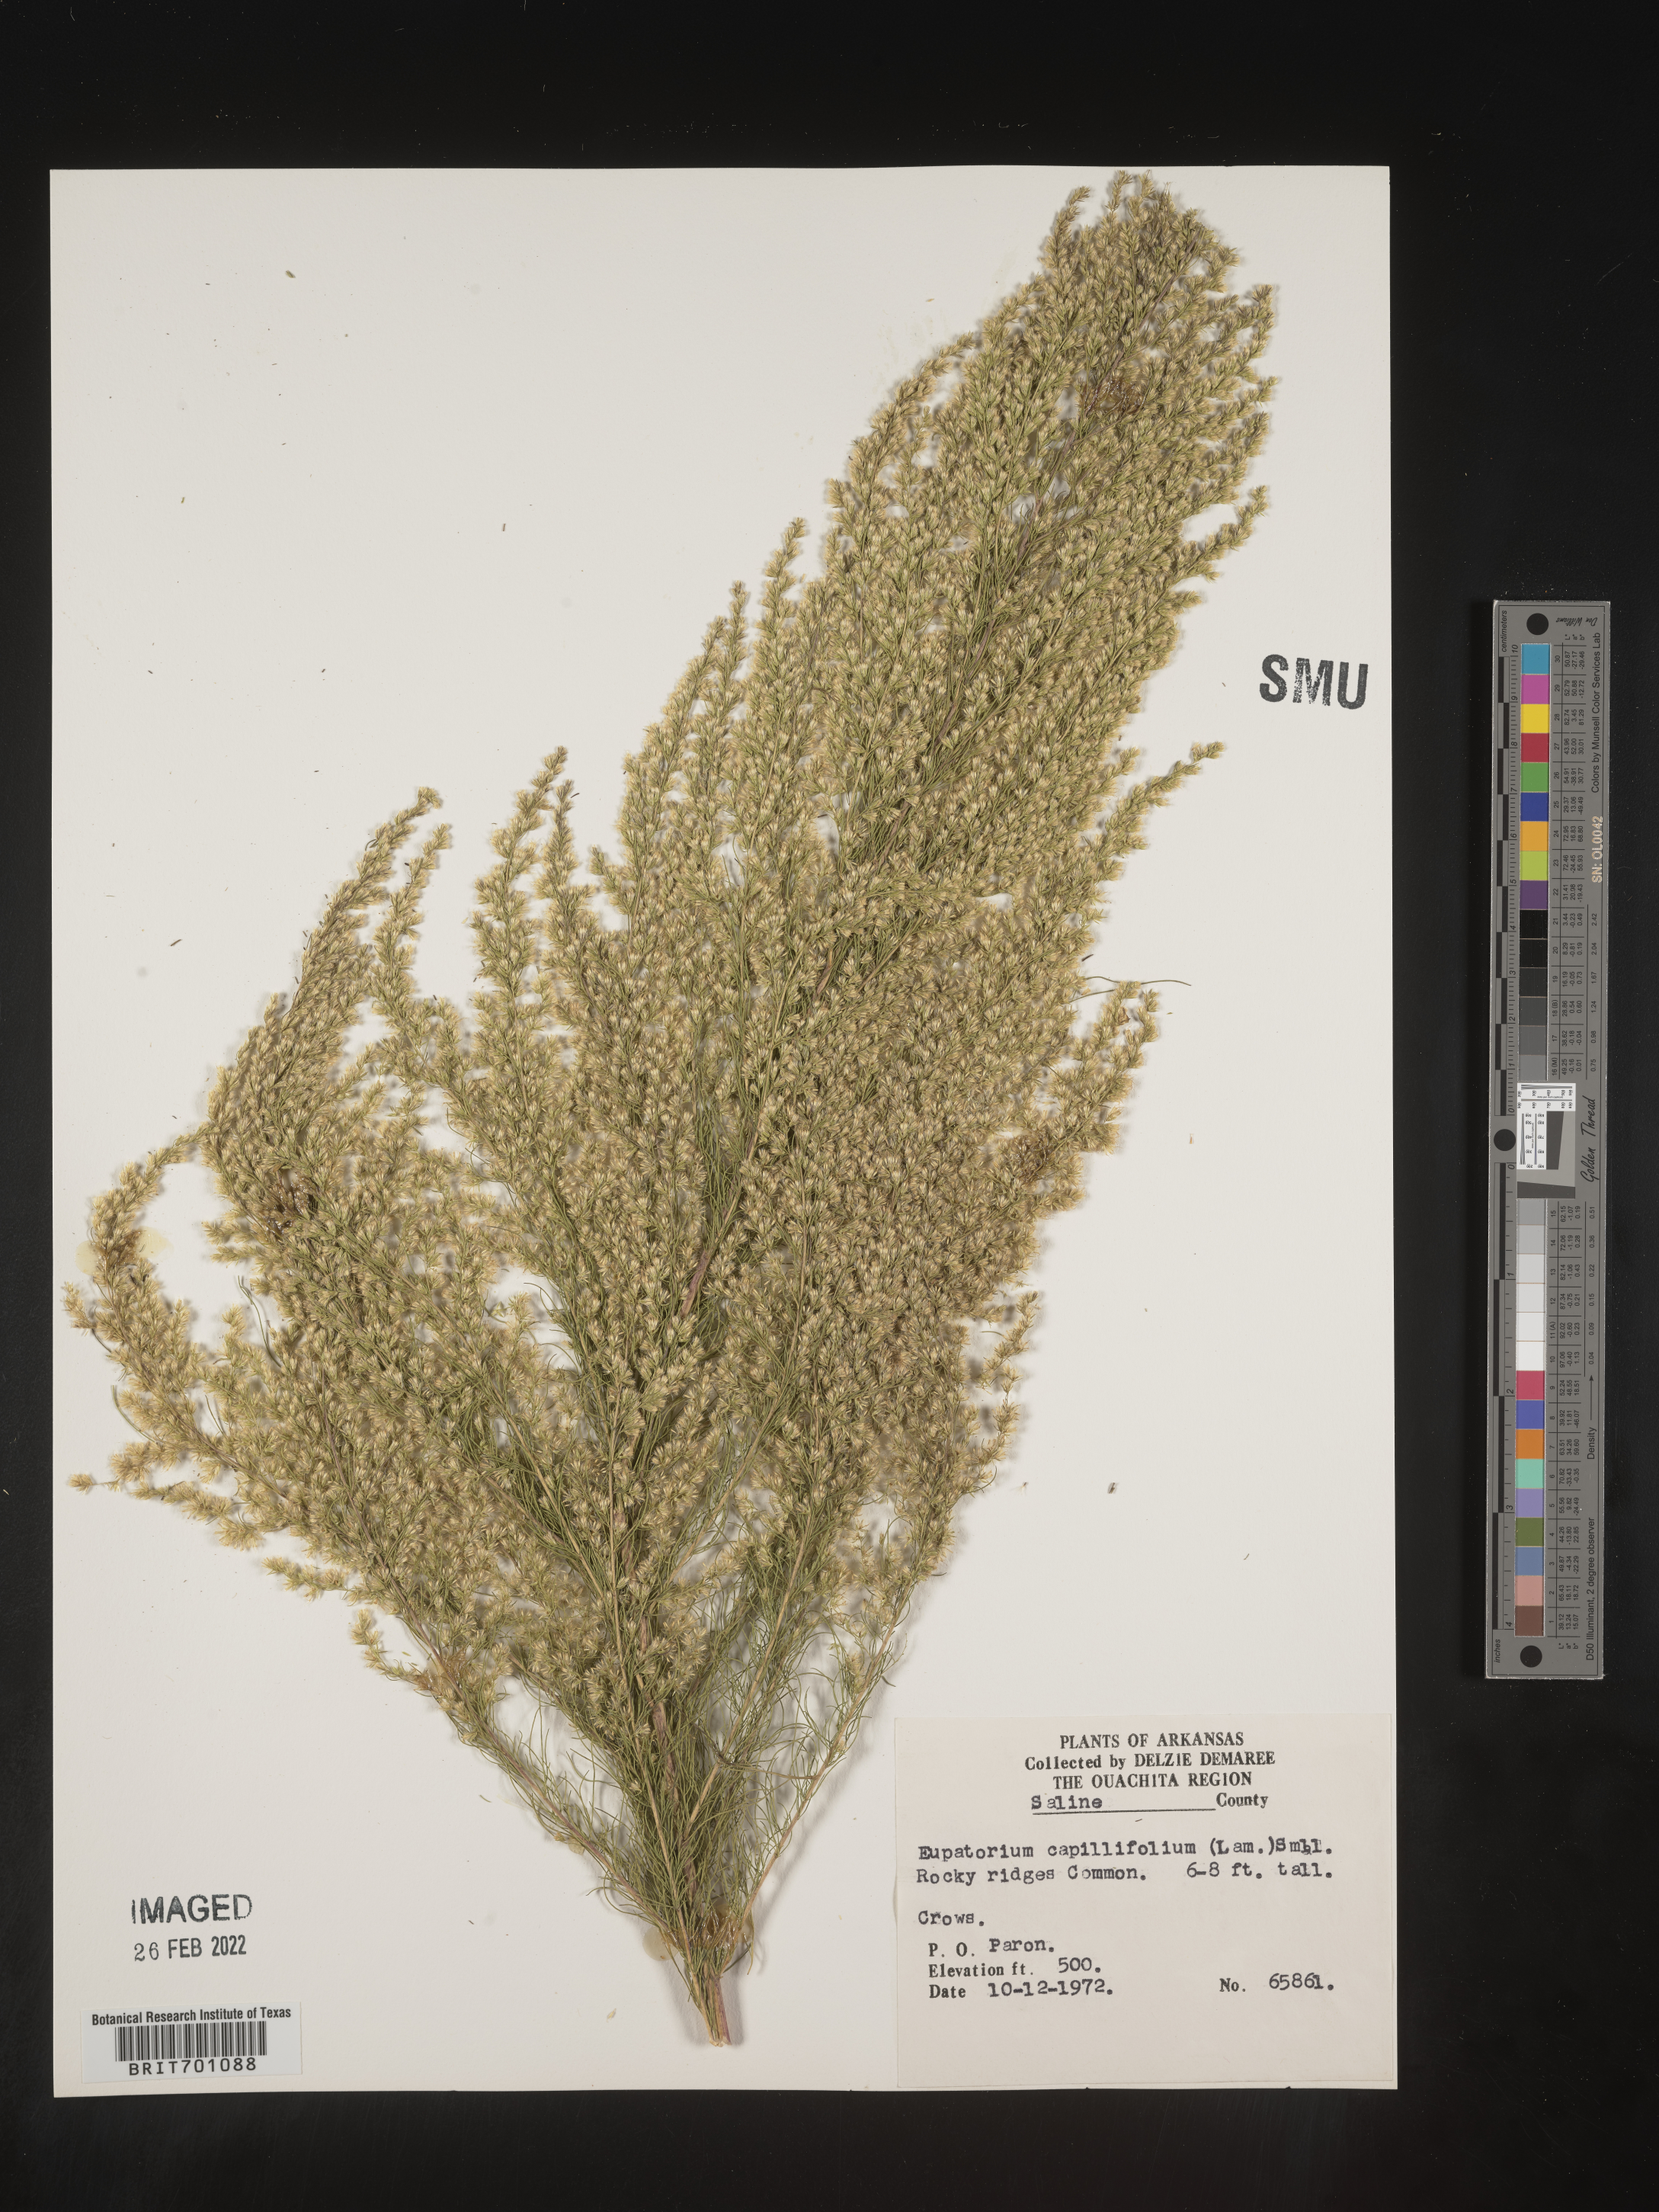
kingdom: Plantae
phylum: Tracheophyta
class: Magnoliopsida
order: Asterales
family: Asteraceae
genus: Eupatorium
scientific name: Eupatorium capillifolium
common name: Dog-fennel
